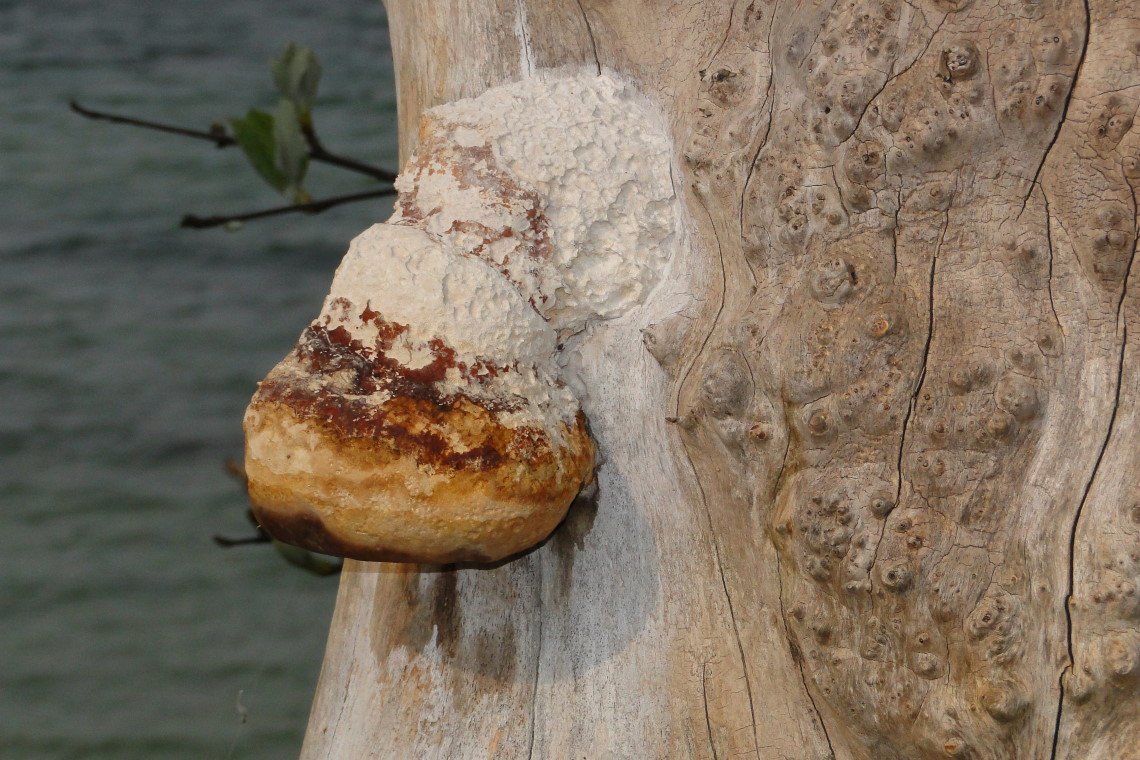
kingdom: Fungi
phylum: Basidiomycota
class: Agaricomycetes
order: Polyporales
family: Fomitopsidaceae
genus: Fomitopsis
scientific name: Fomitopsis pinicola
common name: randbæltet hovporesvamp
